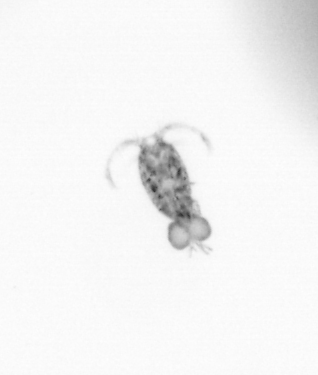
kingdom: Animalia
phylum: Arthropoda
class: Copepoda
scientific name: Copepoda
